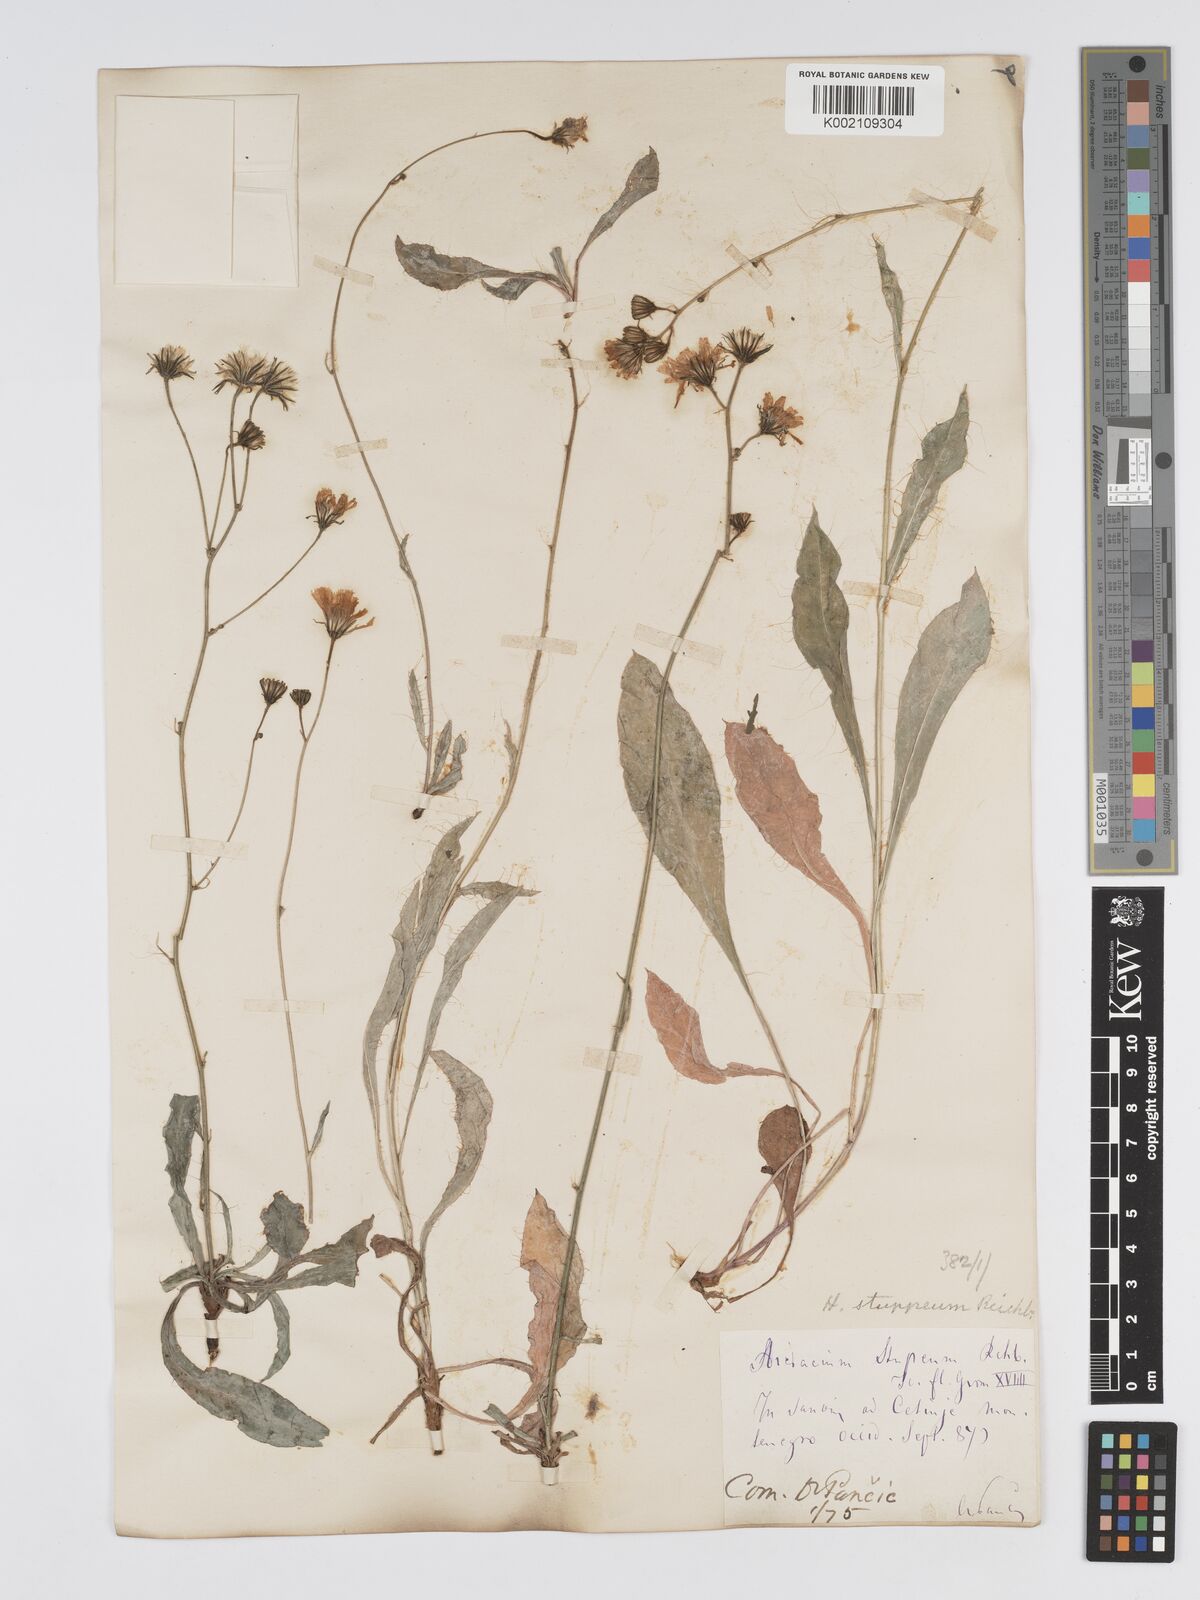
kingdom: Plantae
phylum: Tracheophyta
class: Magnoliopsida
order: Asterales
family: Asteraceae
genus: Hieracium
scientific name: Hieracium heterogynum
